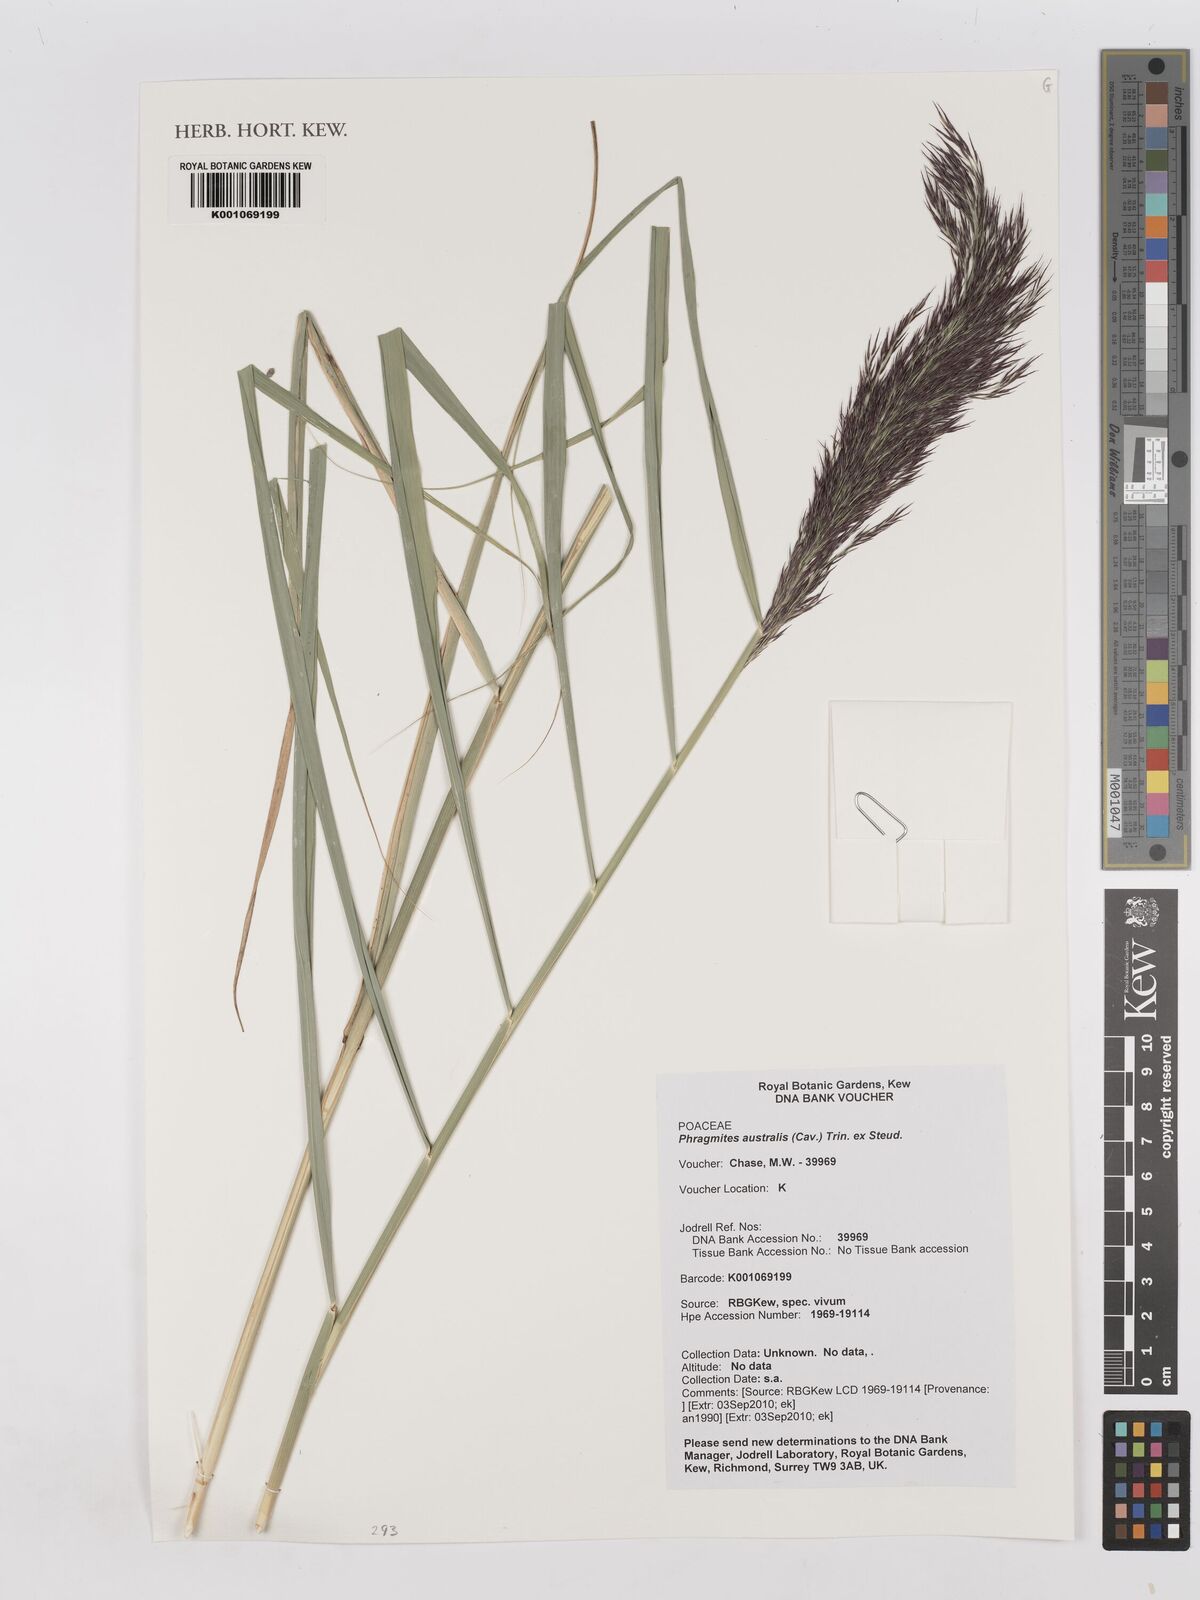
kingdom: Plantae
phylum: Tracheophyta
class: Liliopsida
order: Poales
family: Poaceae
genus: Phragmites
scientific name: Phragmites australis
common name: Common reed
